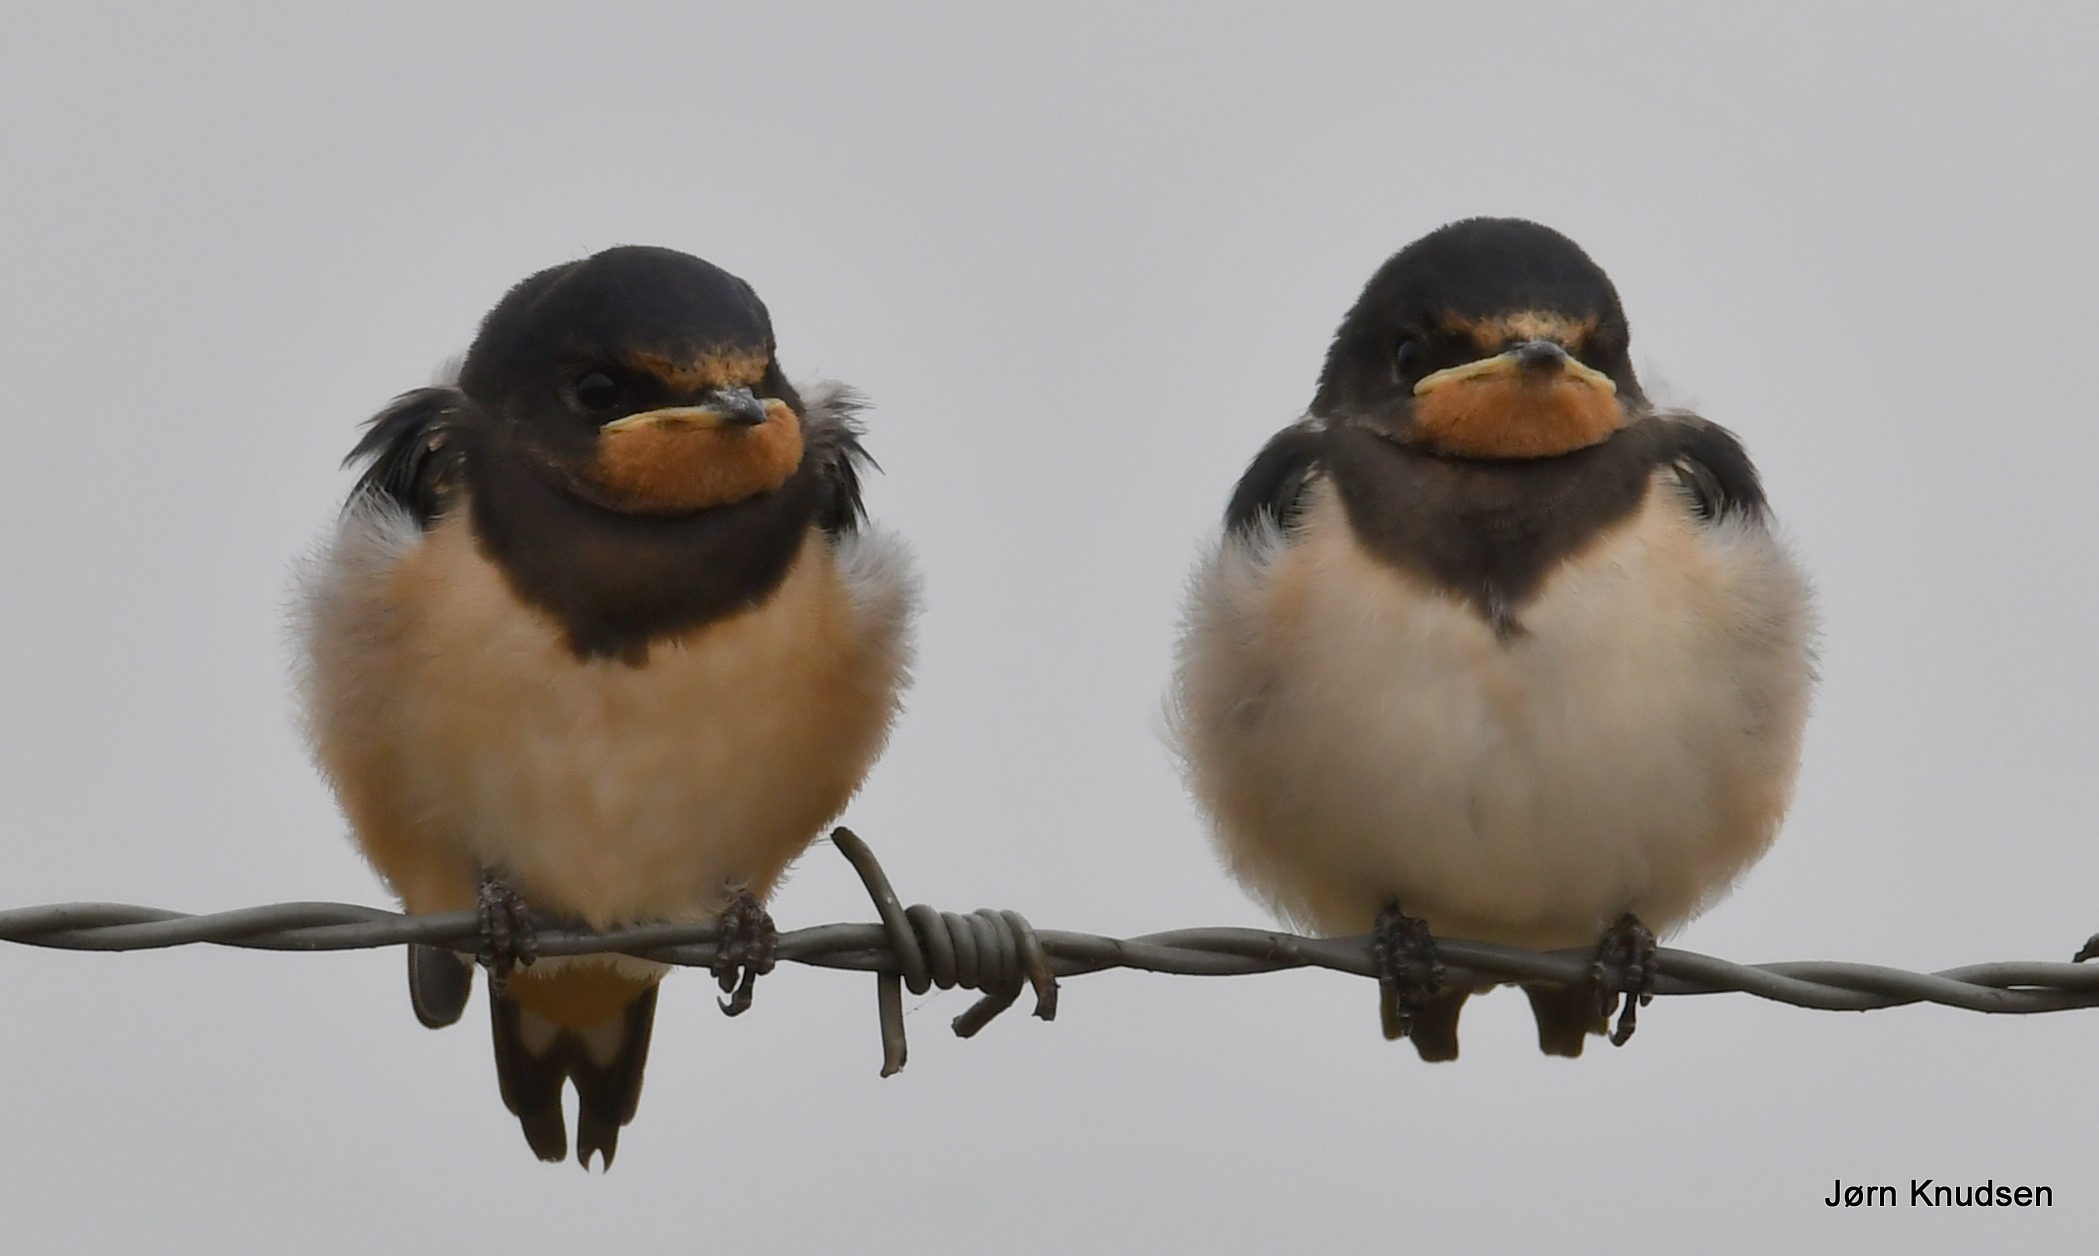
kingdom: Animalia
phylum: Chordata
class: Aves
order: Passeriformes
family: Hirundinidae
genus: Hirundo
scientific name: Hirundo rustica
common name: Landsvale
